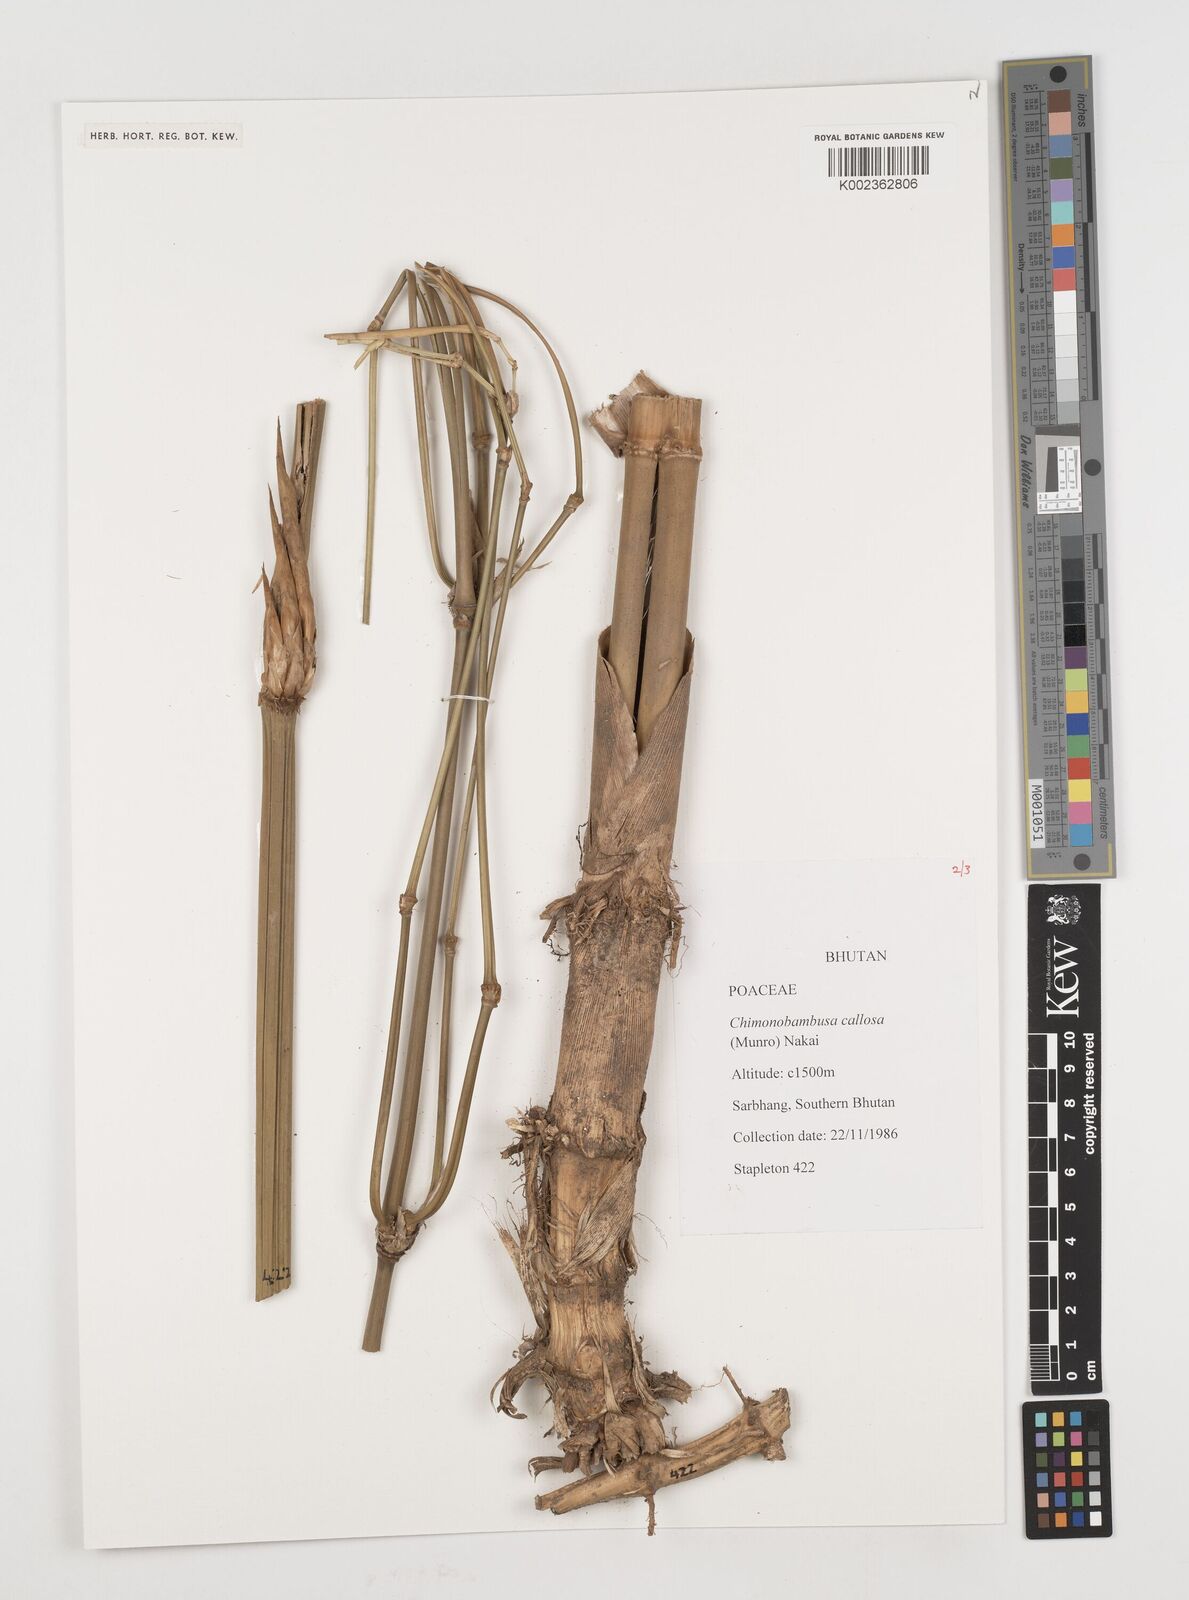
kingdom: Plantae
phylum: Tracheophyta
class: Liliopsida
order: Poales
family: Poaceae
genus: Chimonobambusa
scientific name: Chimonobambusa callosa
